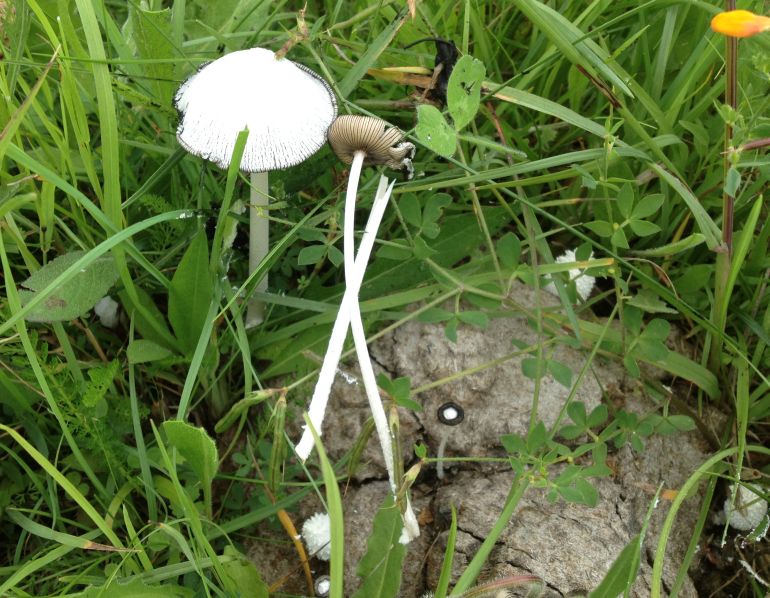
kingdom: Fungi
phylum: Basidiomycota
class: Agaricomycetes
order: Agaricales
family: Psathyrellaceae
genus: Coprinopsis
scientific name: Coprinopsis nivea
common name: snehvid blækhat
